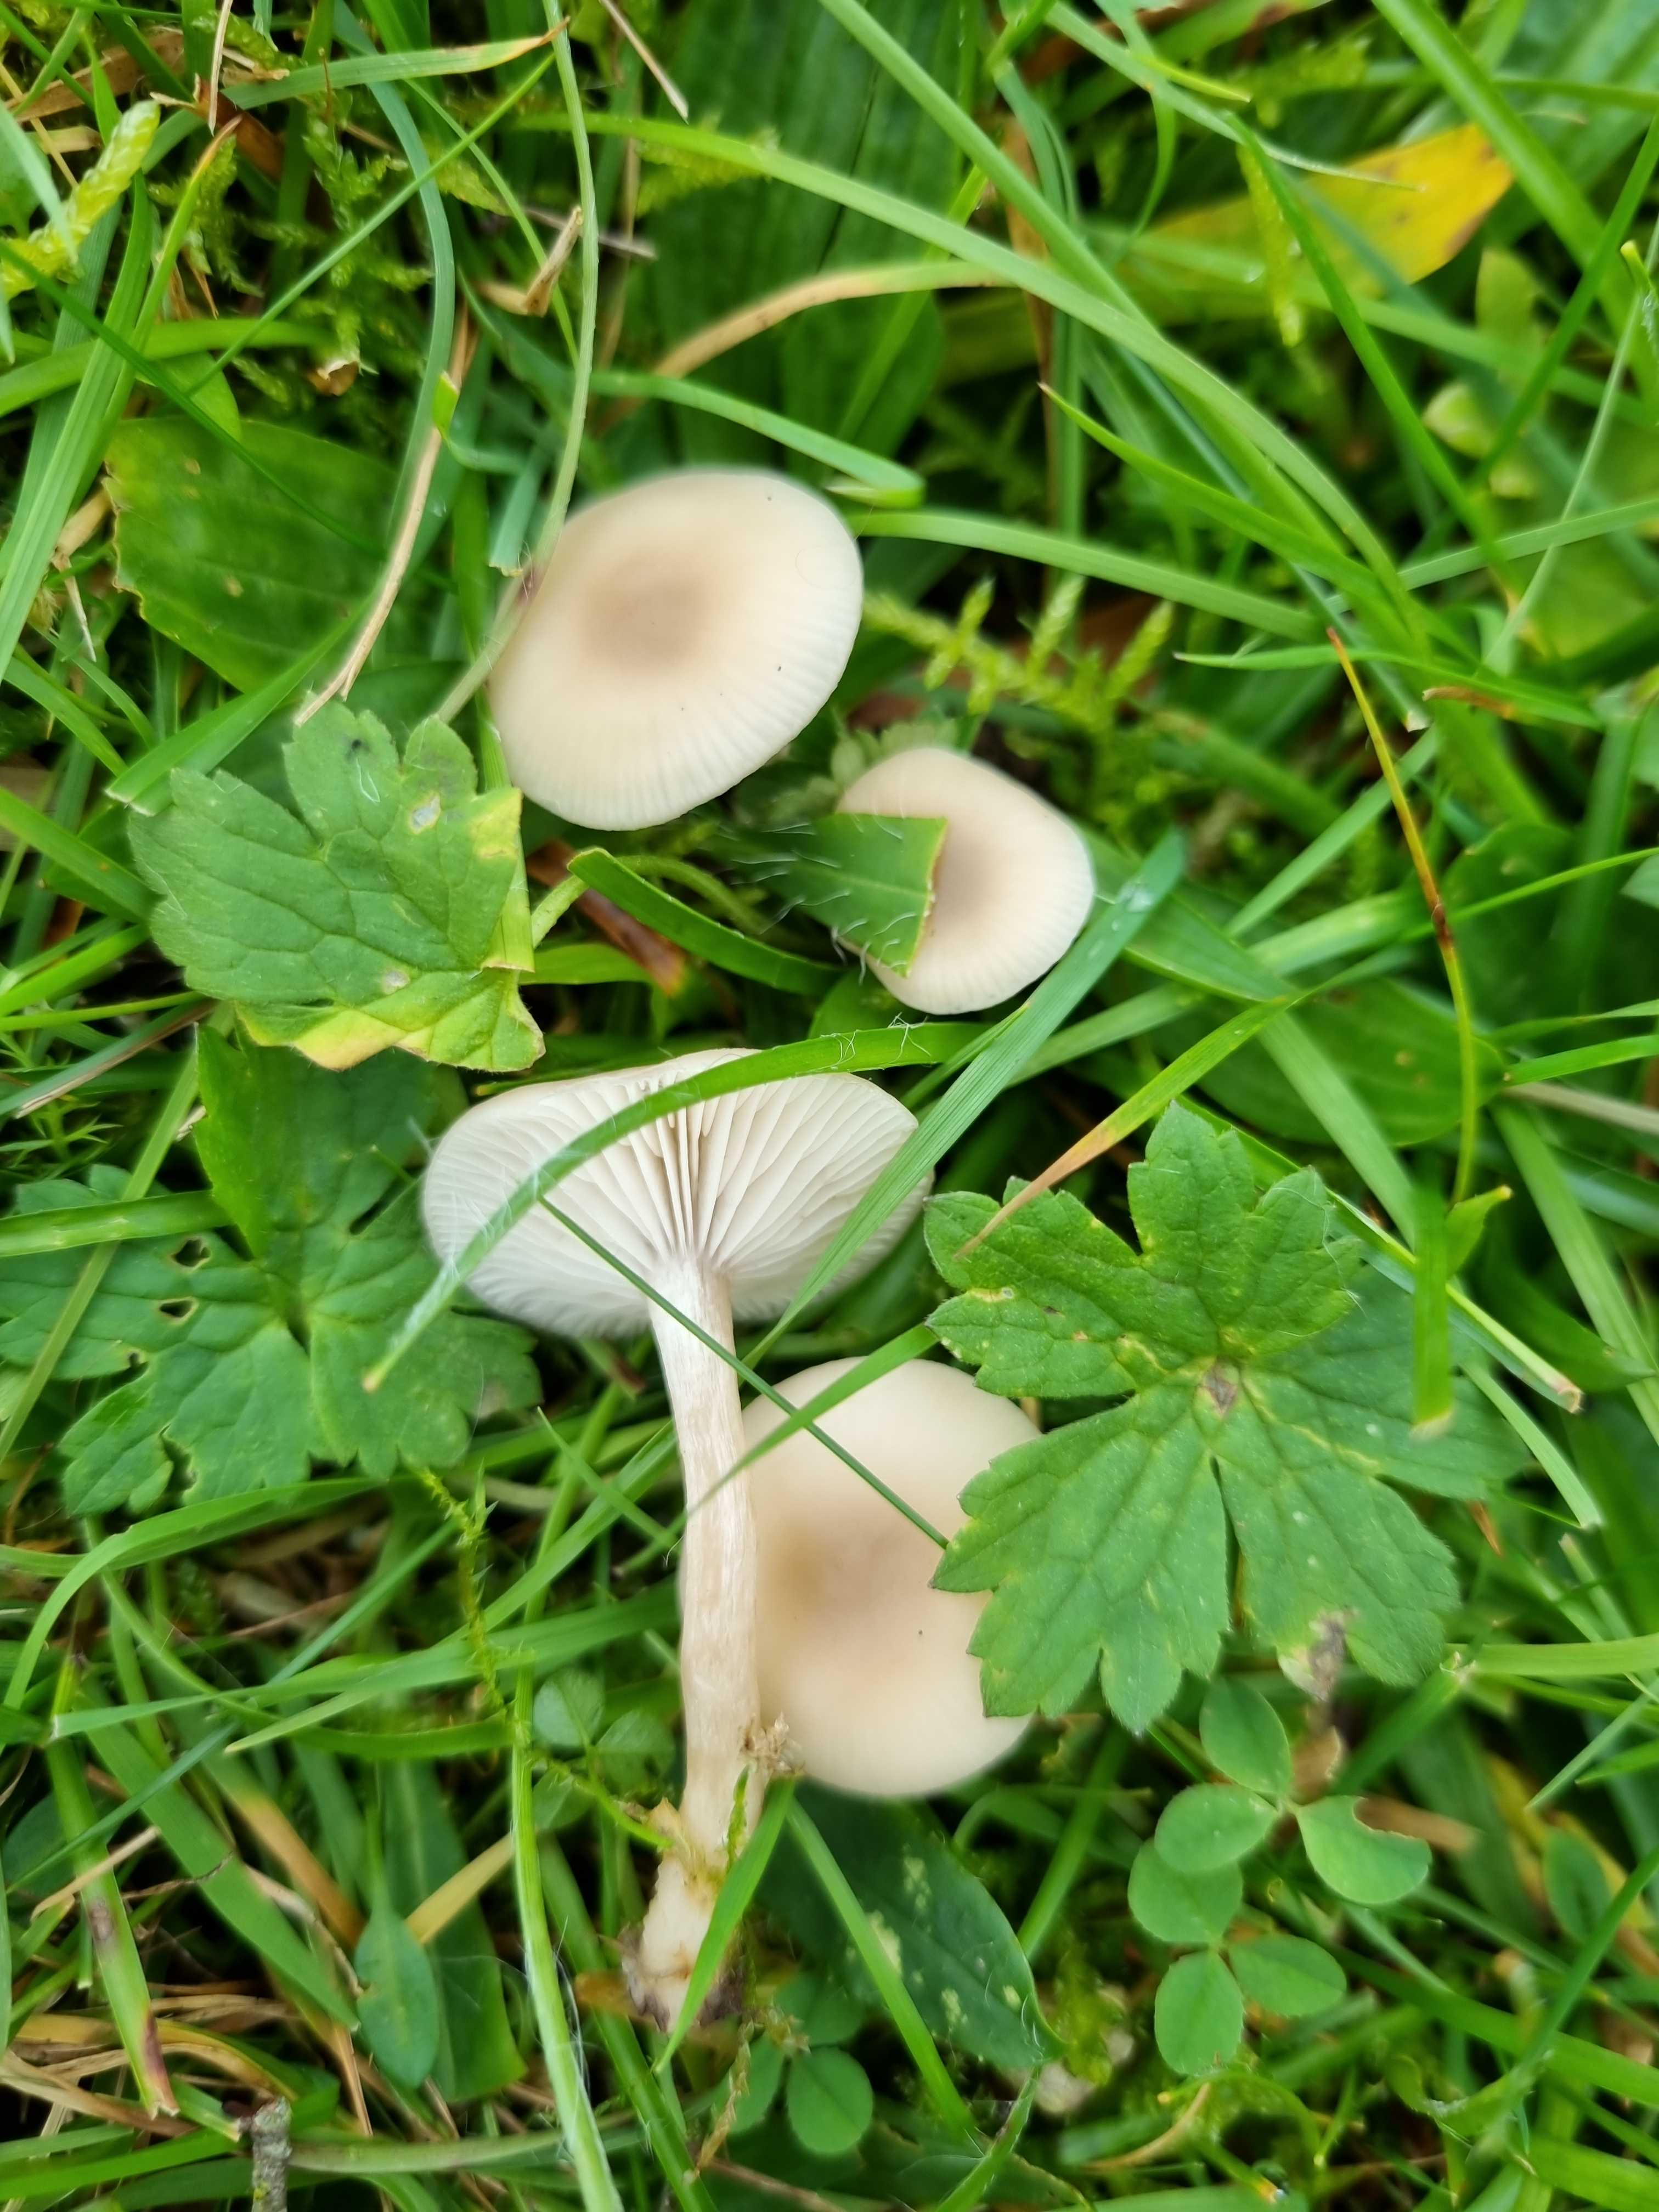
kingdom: Fungi
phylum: Basidiomycota
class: Agaricomycetes
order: Agaricales
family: Tricholomataceae
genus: Clitocybe
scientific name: Clitocybe fragrans
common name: vellugtende tragthat
